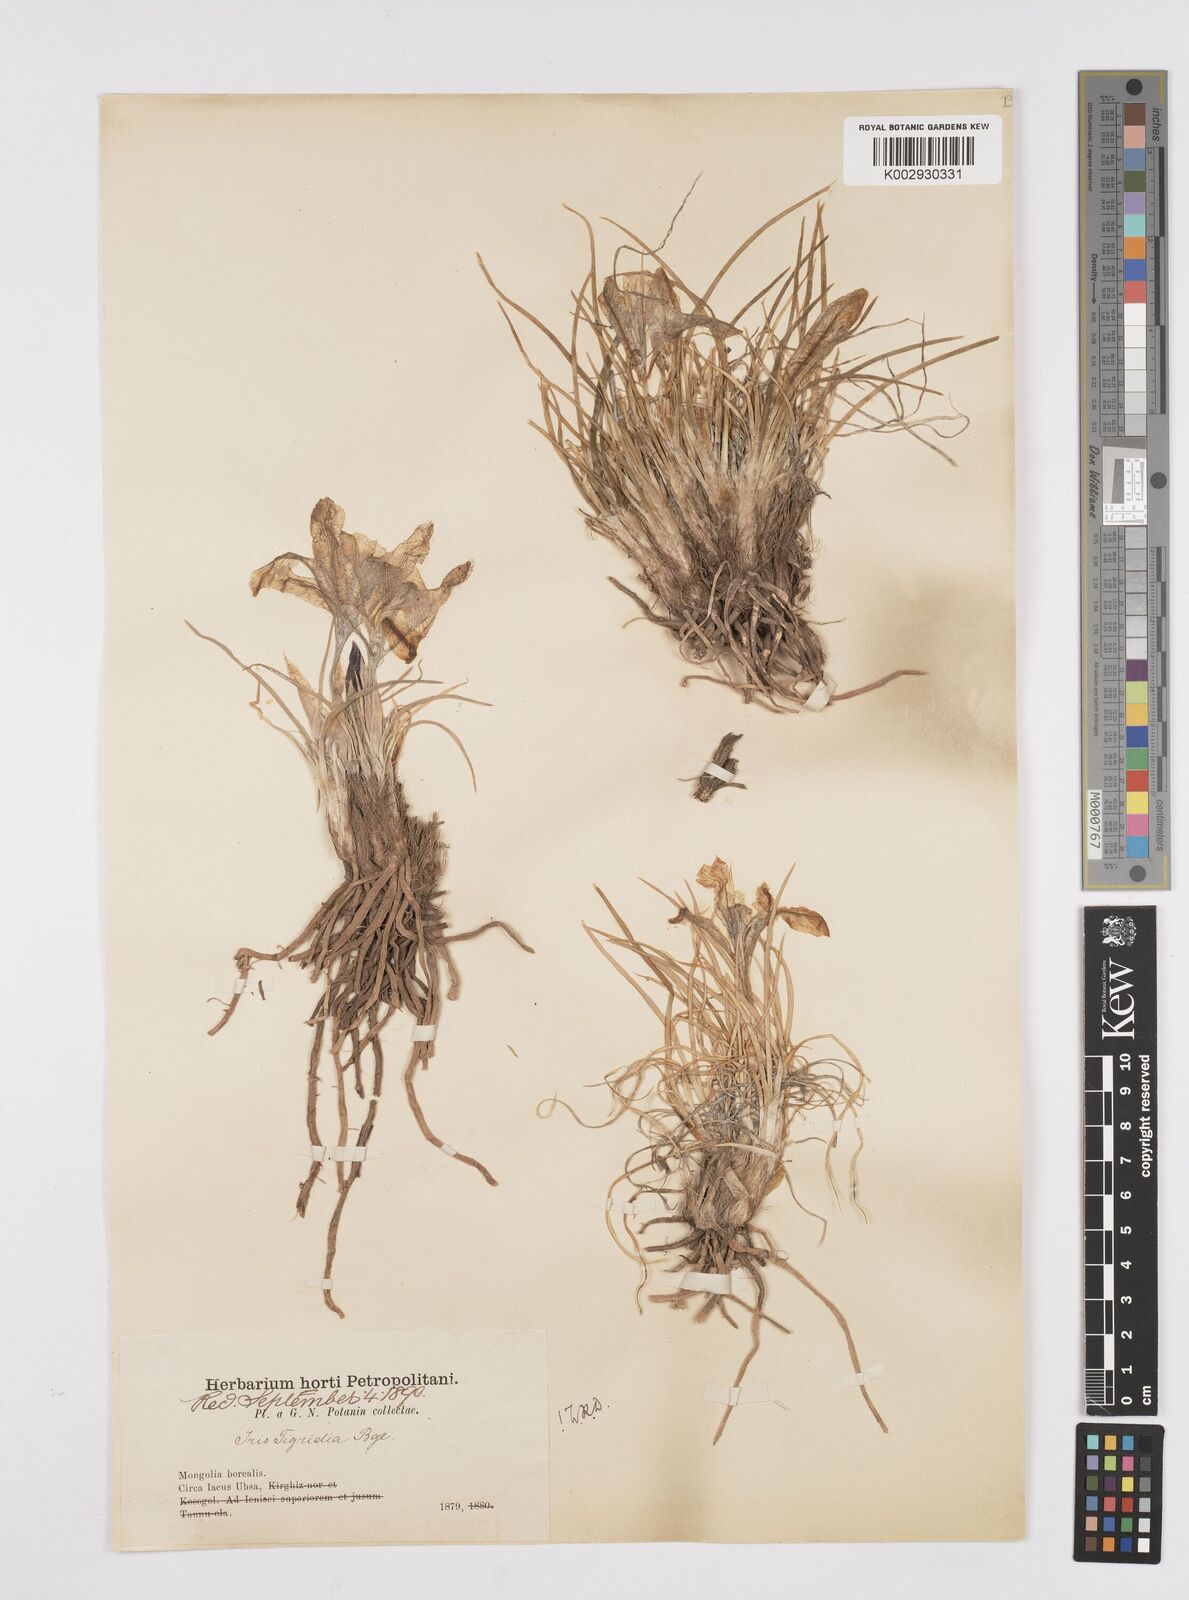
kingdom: Plantae
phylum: Tracheophyta
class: Liliopsida
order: Asparagales
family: Iridaceae
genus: Iris
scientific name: Iris tigridia
